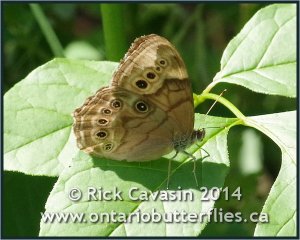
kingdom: Animalia
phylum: Arthropoda
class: Insecta
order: Lepidoptera
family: Nymphalidae
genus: Lethe
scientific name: Lethe anthedon
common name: Northern Pearly-Eye
